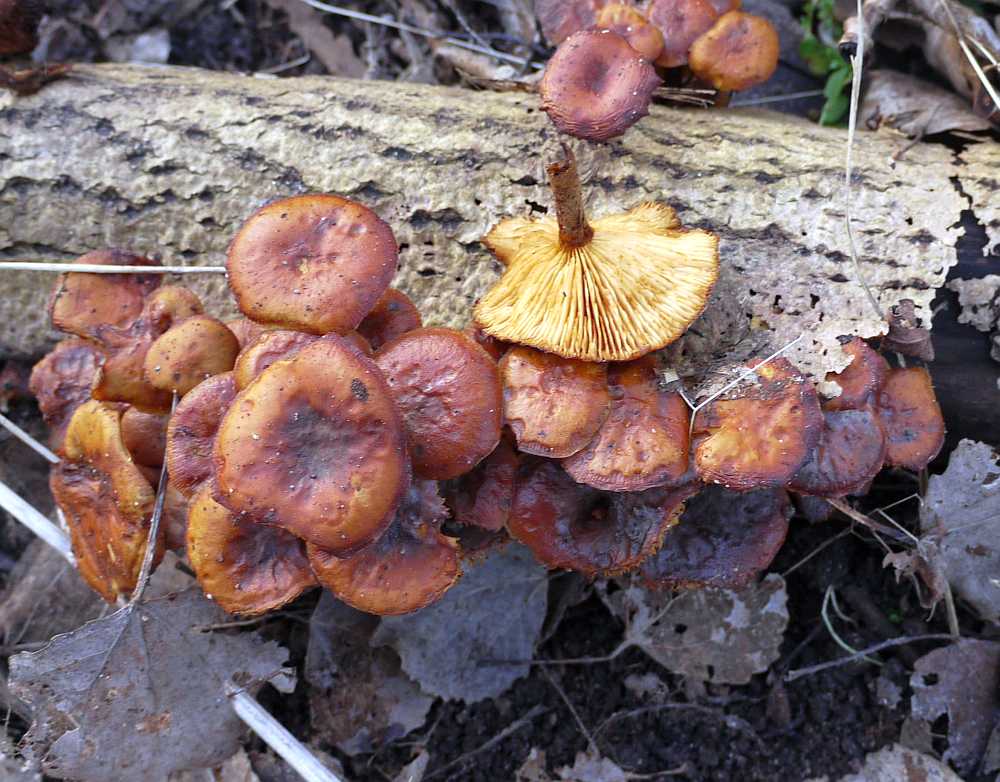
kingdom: Fungi
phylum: Basidiomycota
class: Agaricomycetes
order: Agaricales
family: Physalacriaceae
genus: Flammulina
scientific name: Flammulina velutipes
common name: gul fløjlsfod
